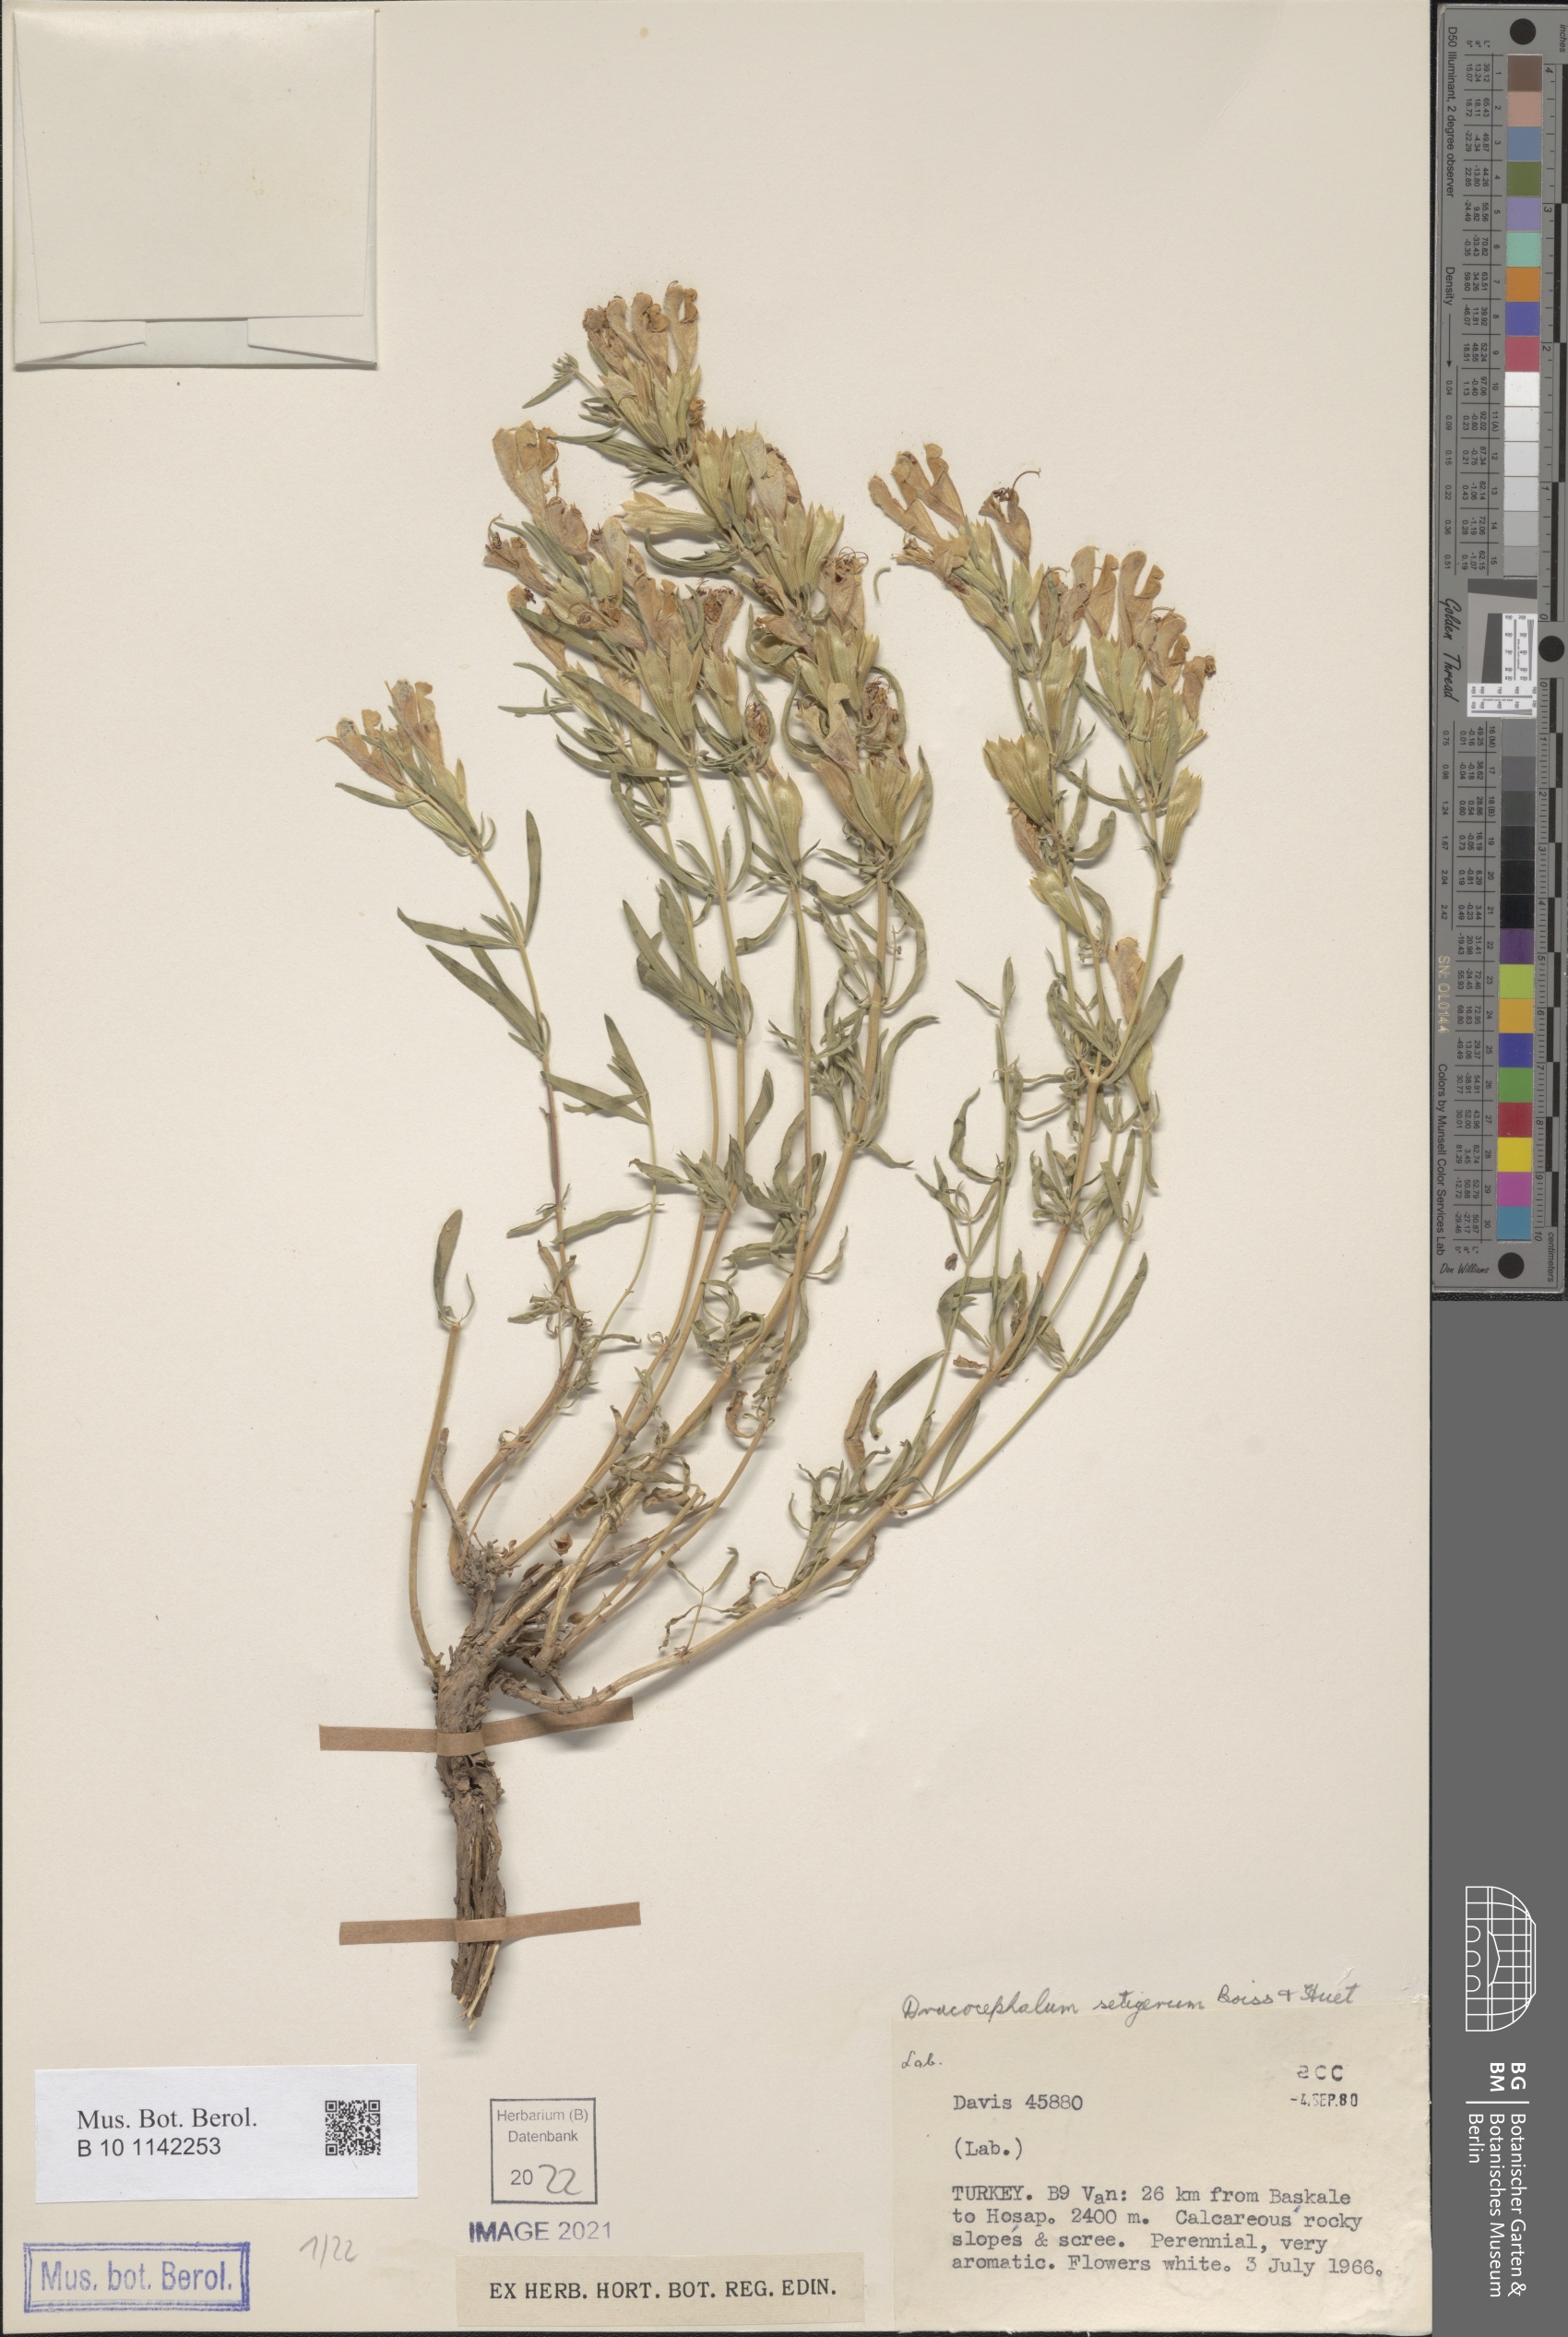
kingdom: Plantae
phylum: Tracheophyta
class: Magnoliopsida
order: Lamiales
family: Lamiaceae
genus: Dracocephalum
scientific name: Dracocephalum multicaule
